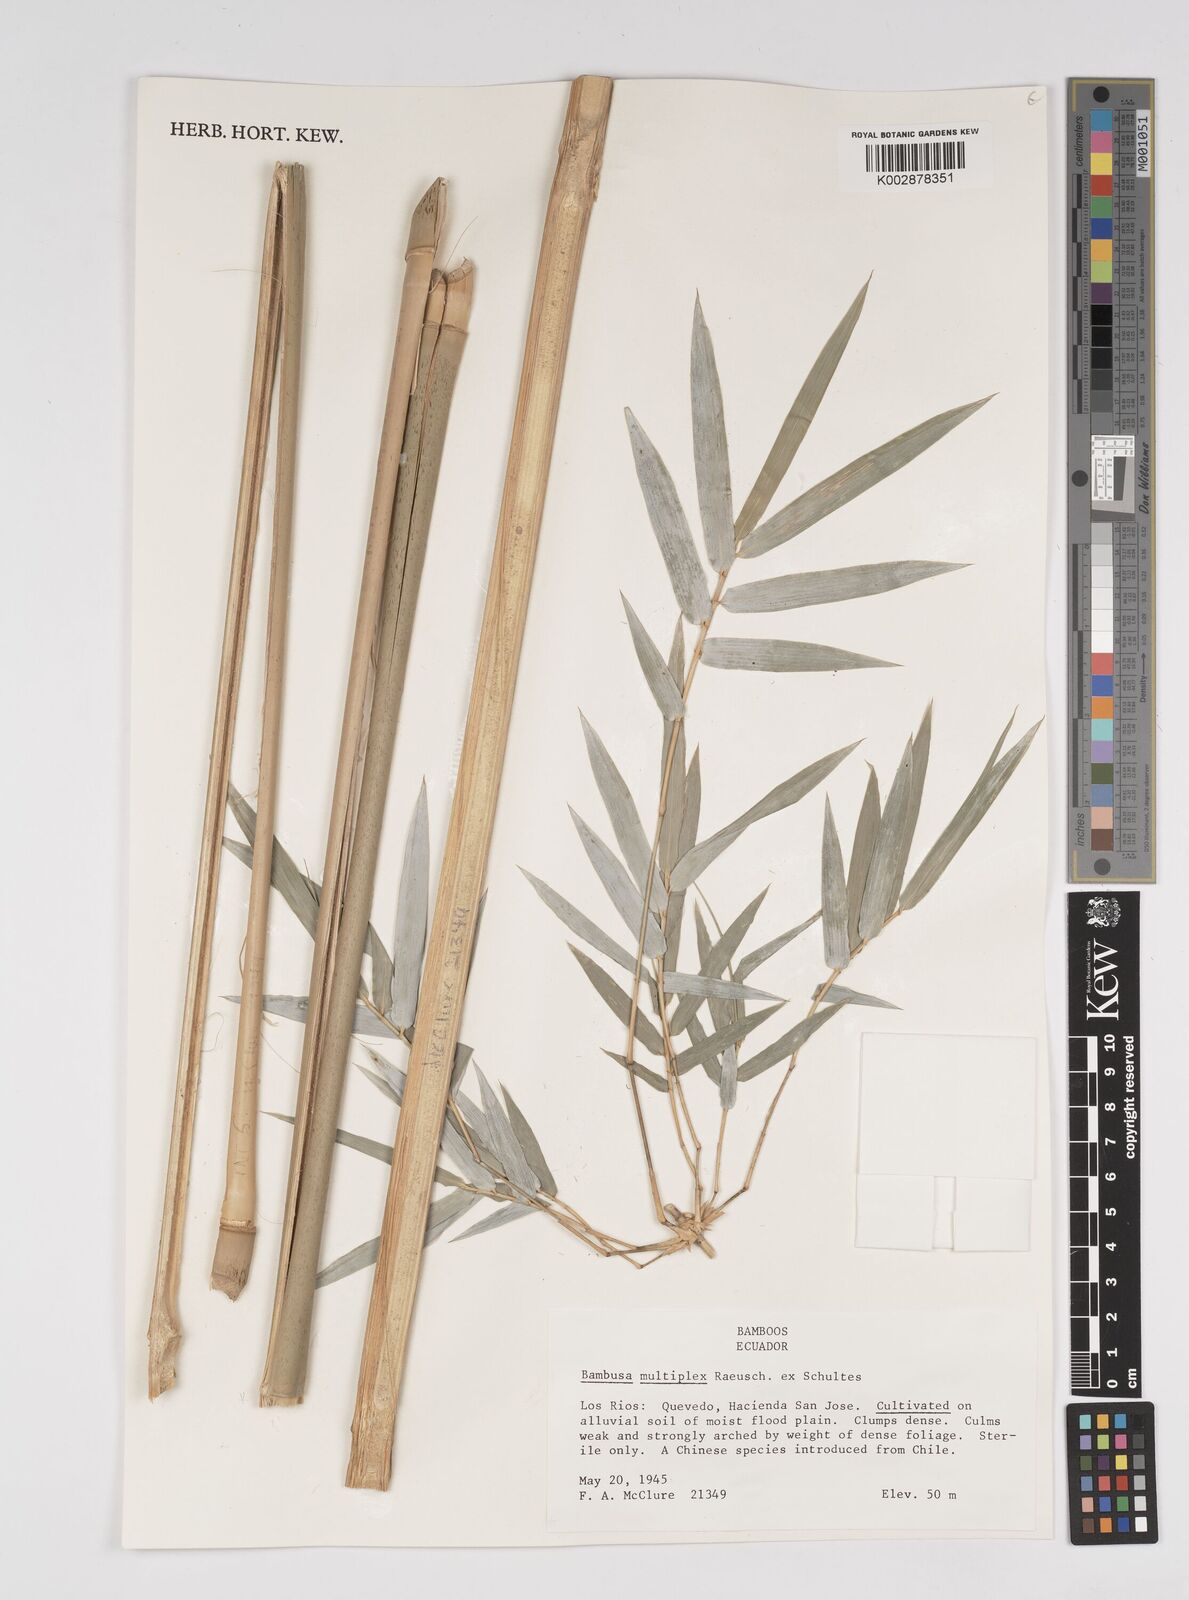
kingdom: Plantae
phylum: Tracheophyta
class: Liliopsida
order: Poales
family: Poaceae
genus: Bambusa
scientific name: Bambusa multiplex
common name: Hedge bamboo
